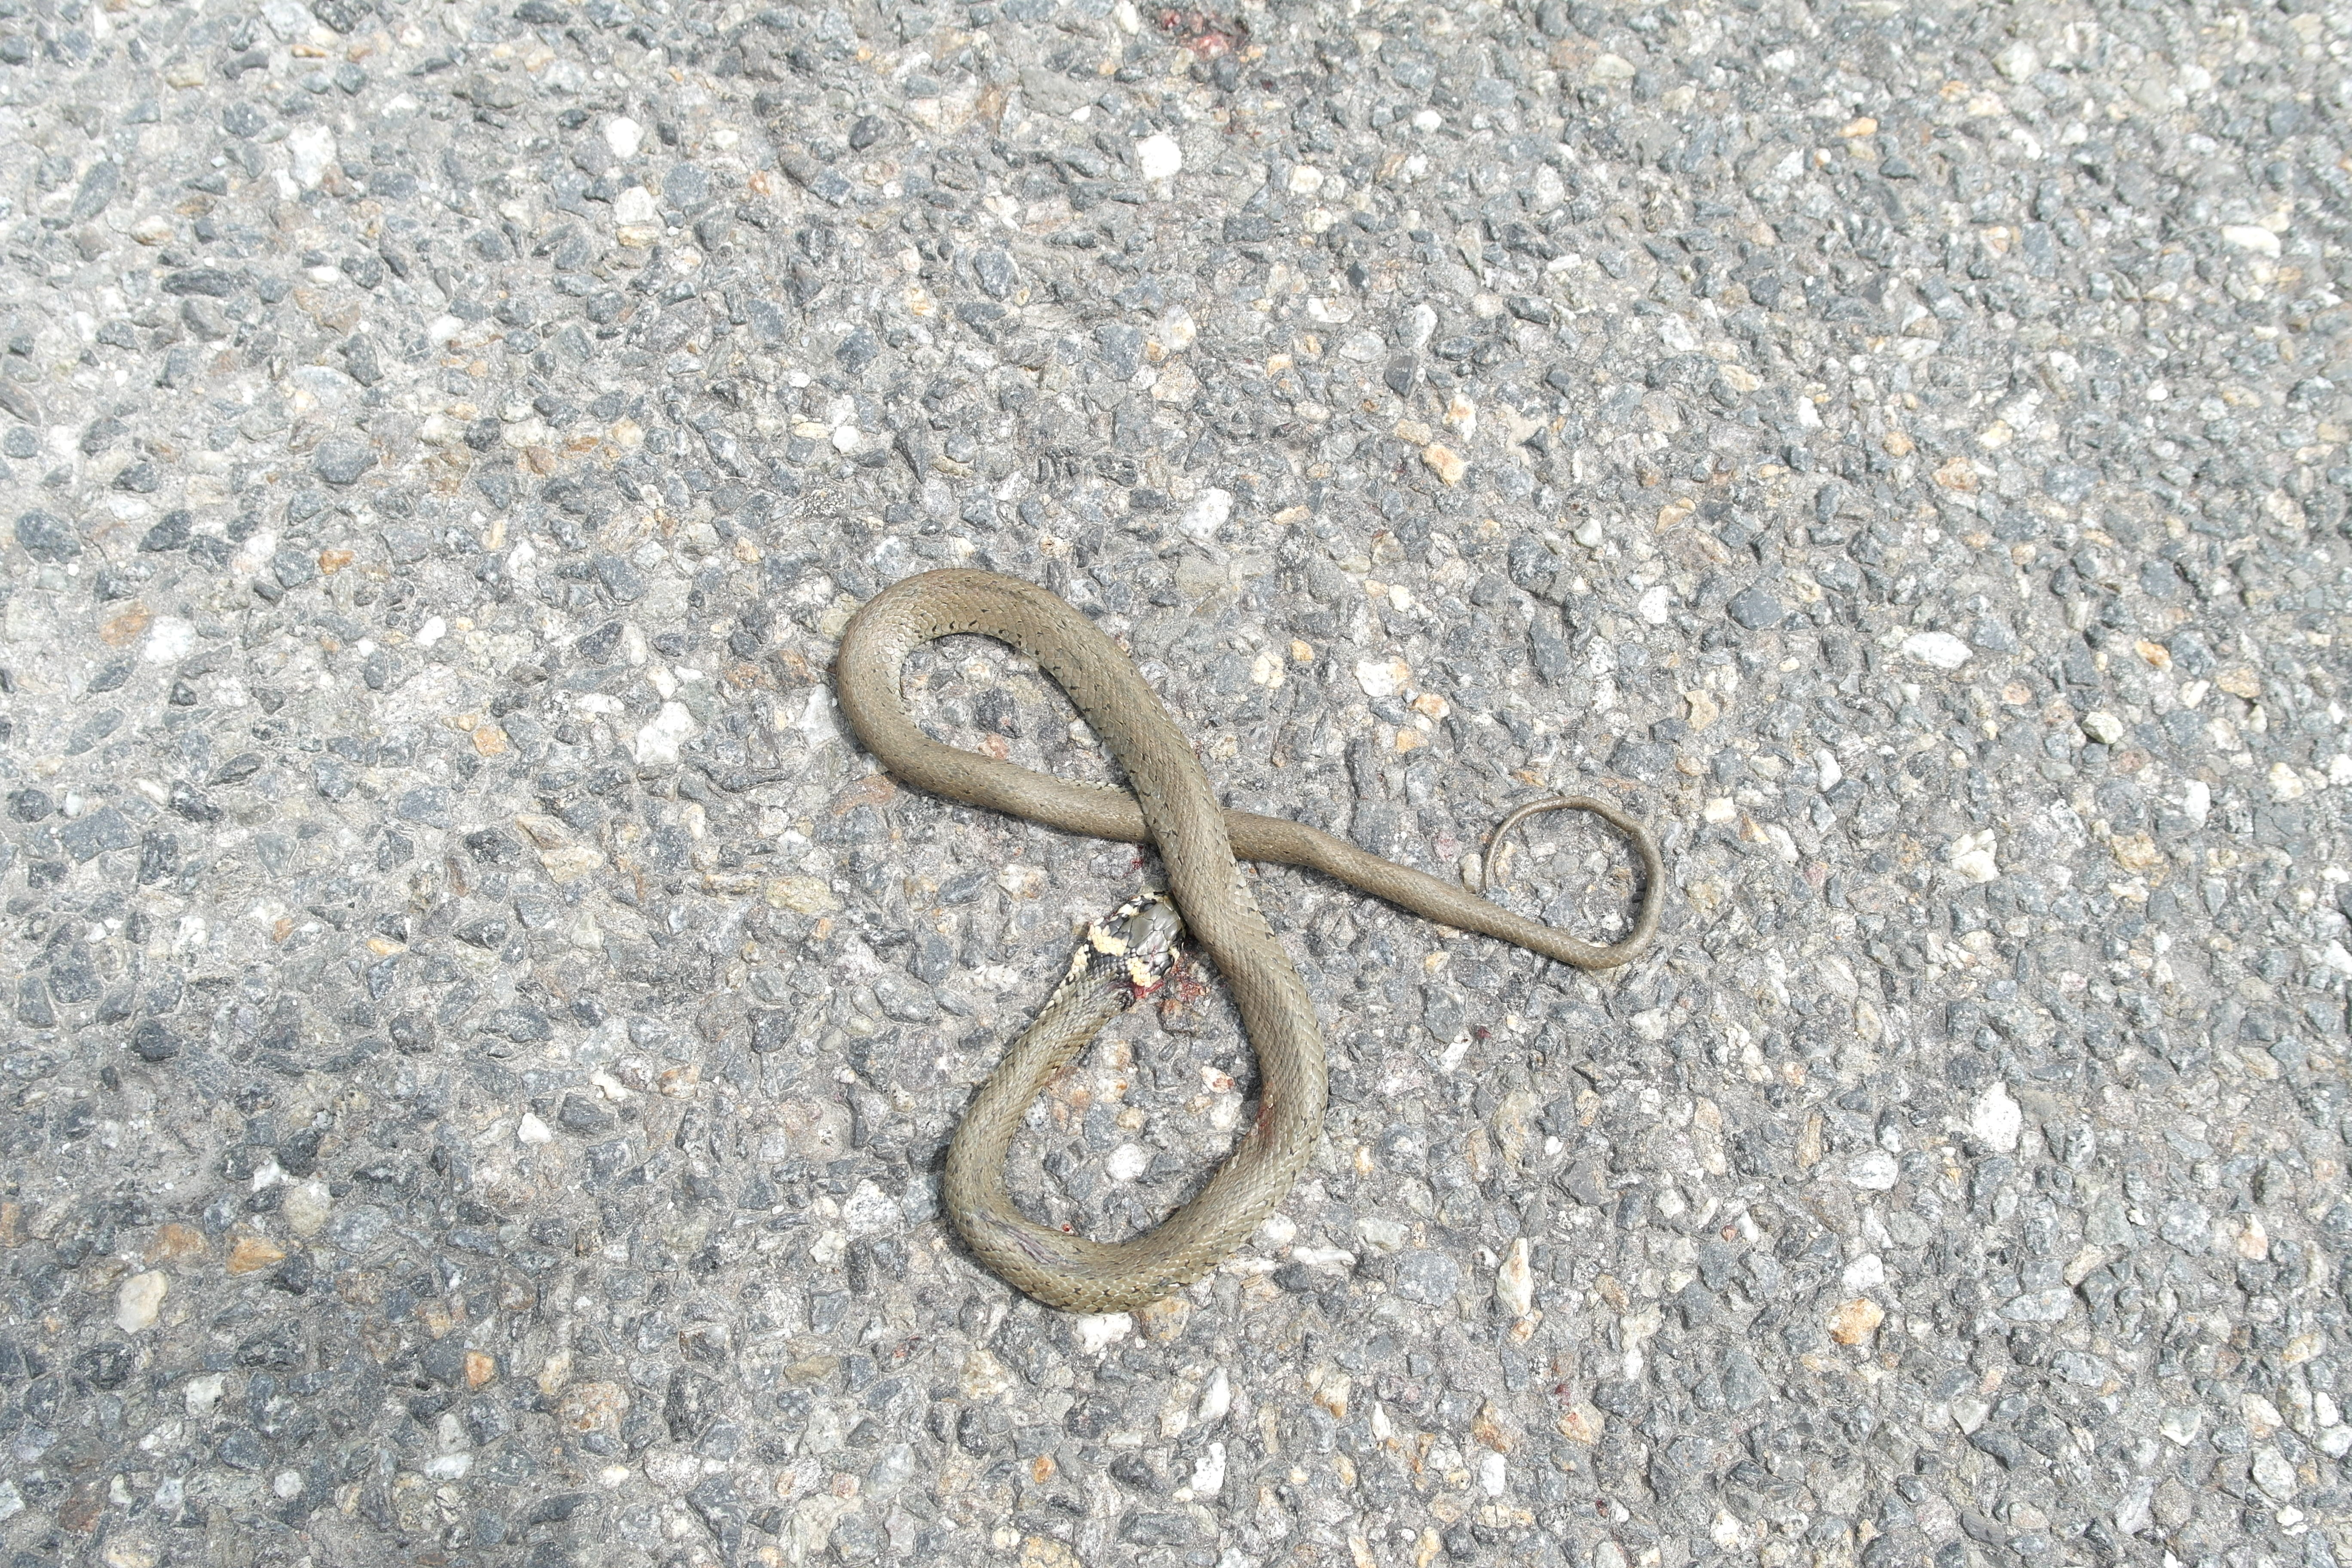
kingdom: Animalia
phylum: Chordata
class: Squamata
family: Colubridae
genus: Natrix
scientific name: Natrix natrix
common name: Grass snake
